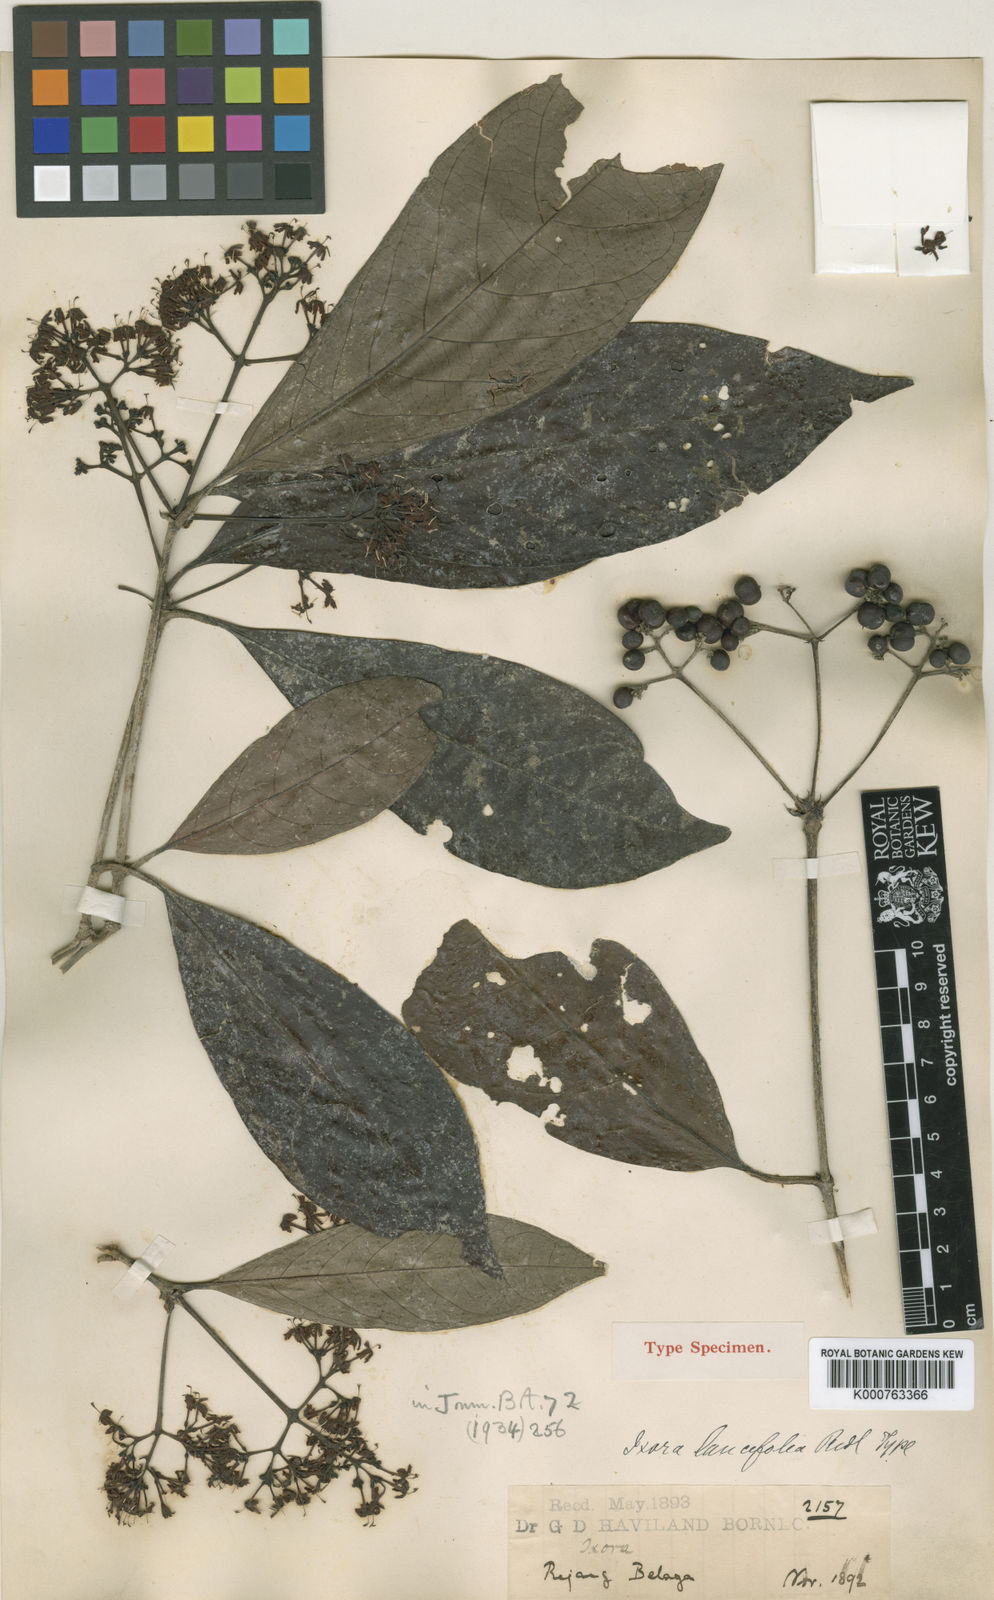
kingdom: Plantae
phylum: Tracheophyta
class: Magnoliopsida
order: Gentianales
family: Rubiaceae
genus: Ixora
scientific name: Ixora grandifolia
